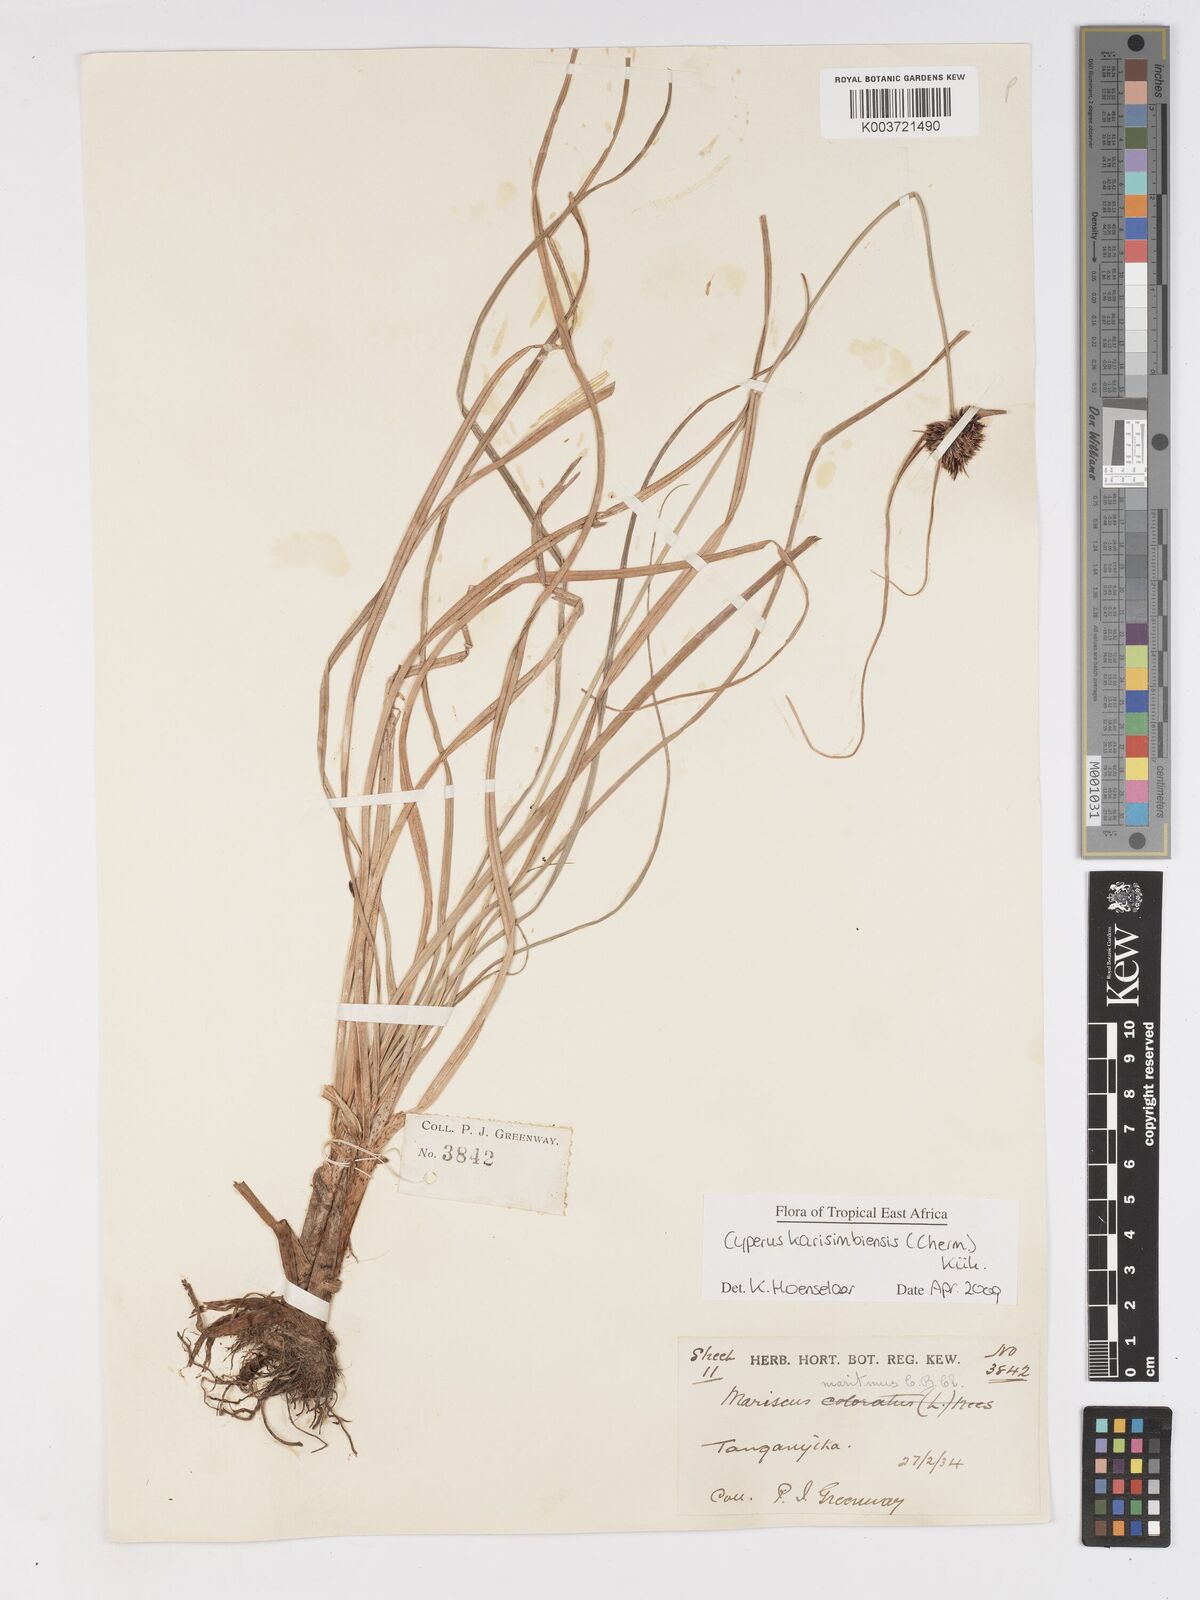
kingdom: Plantae
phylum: Tracheophyta
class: Liliopsida
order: Poales
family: Cyperaceae
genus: Cyperus
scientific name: Cyperus karisimbiensis
